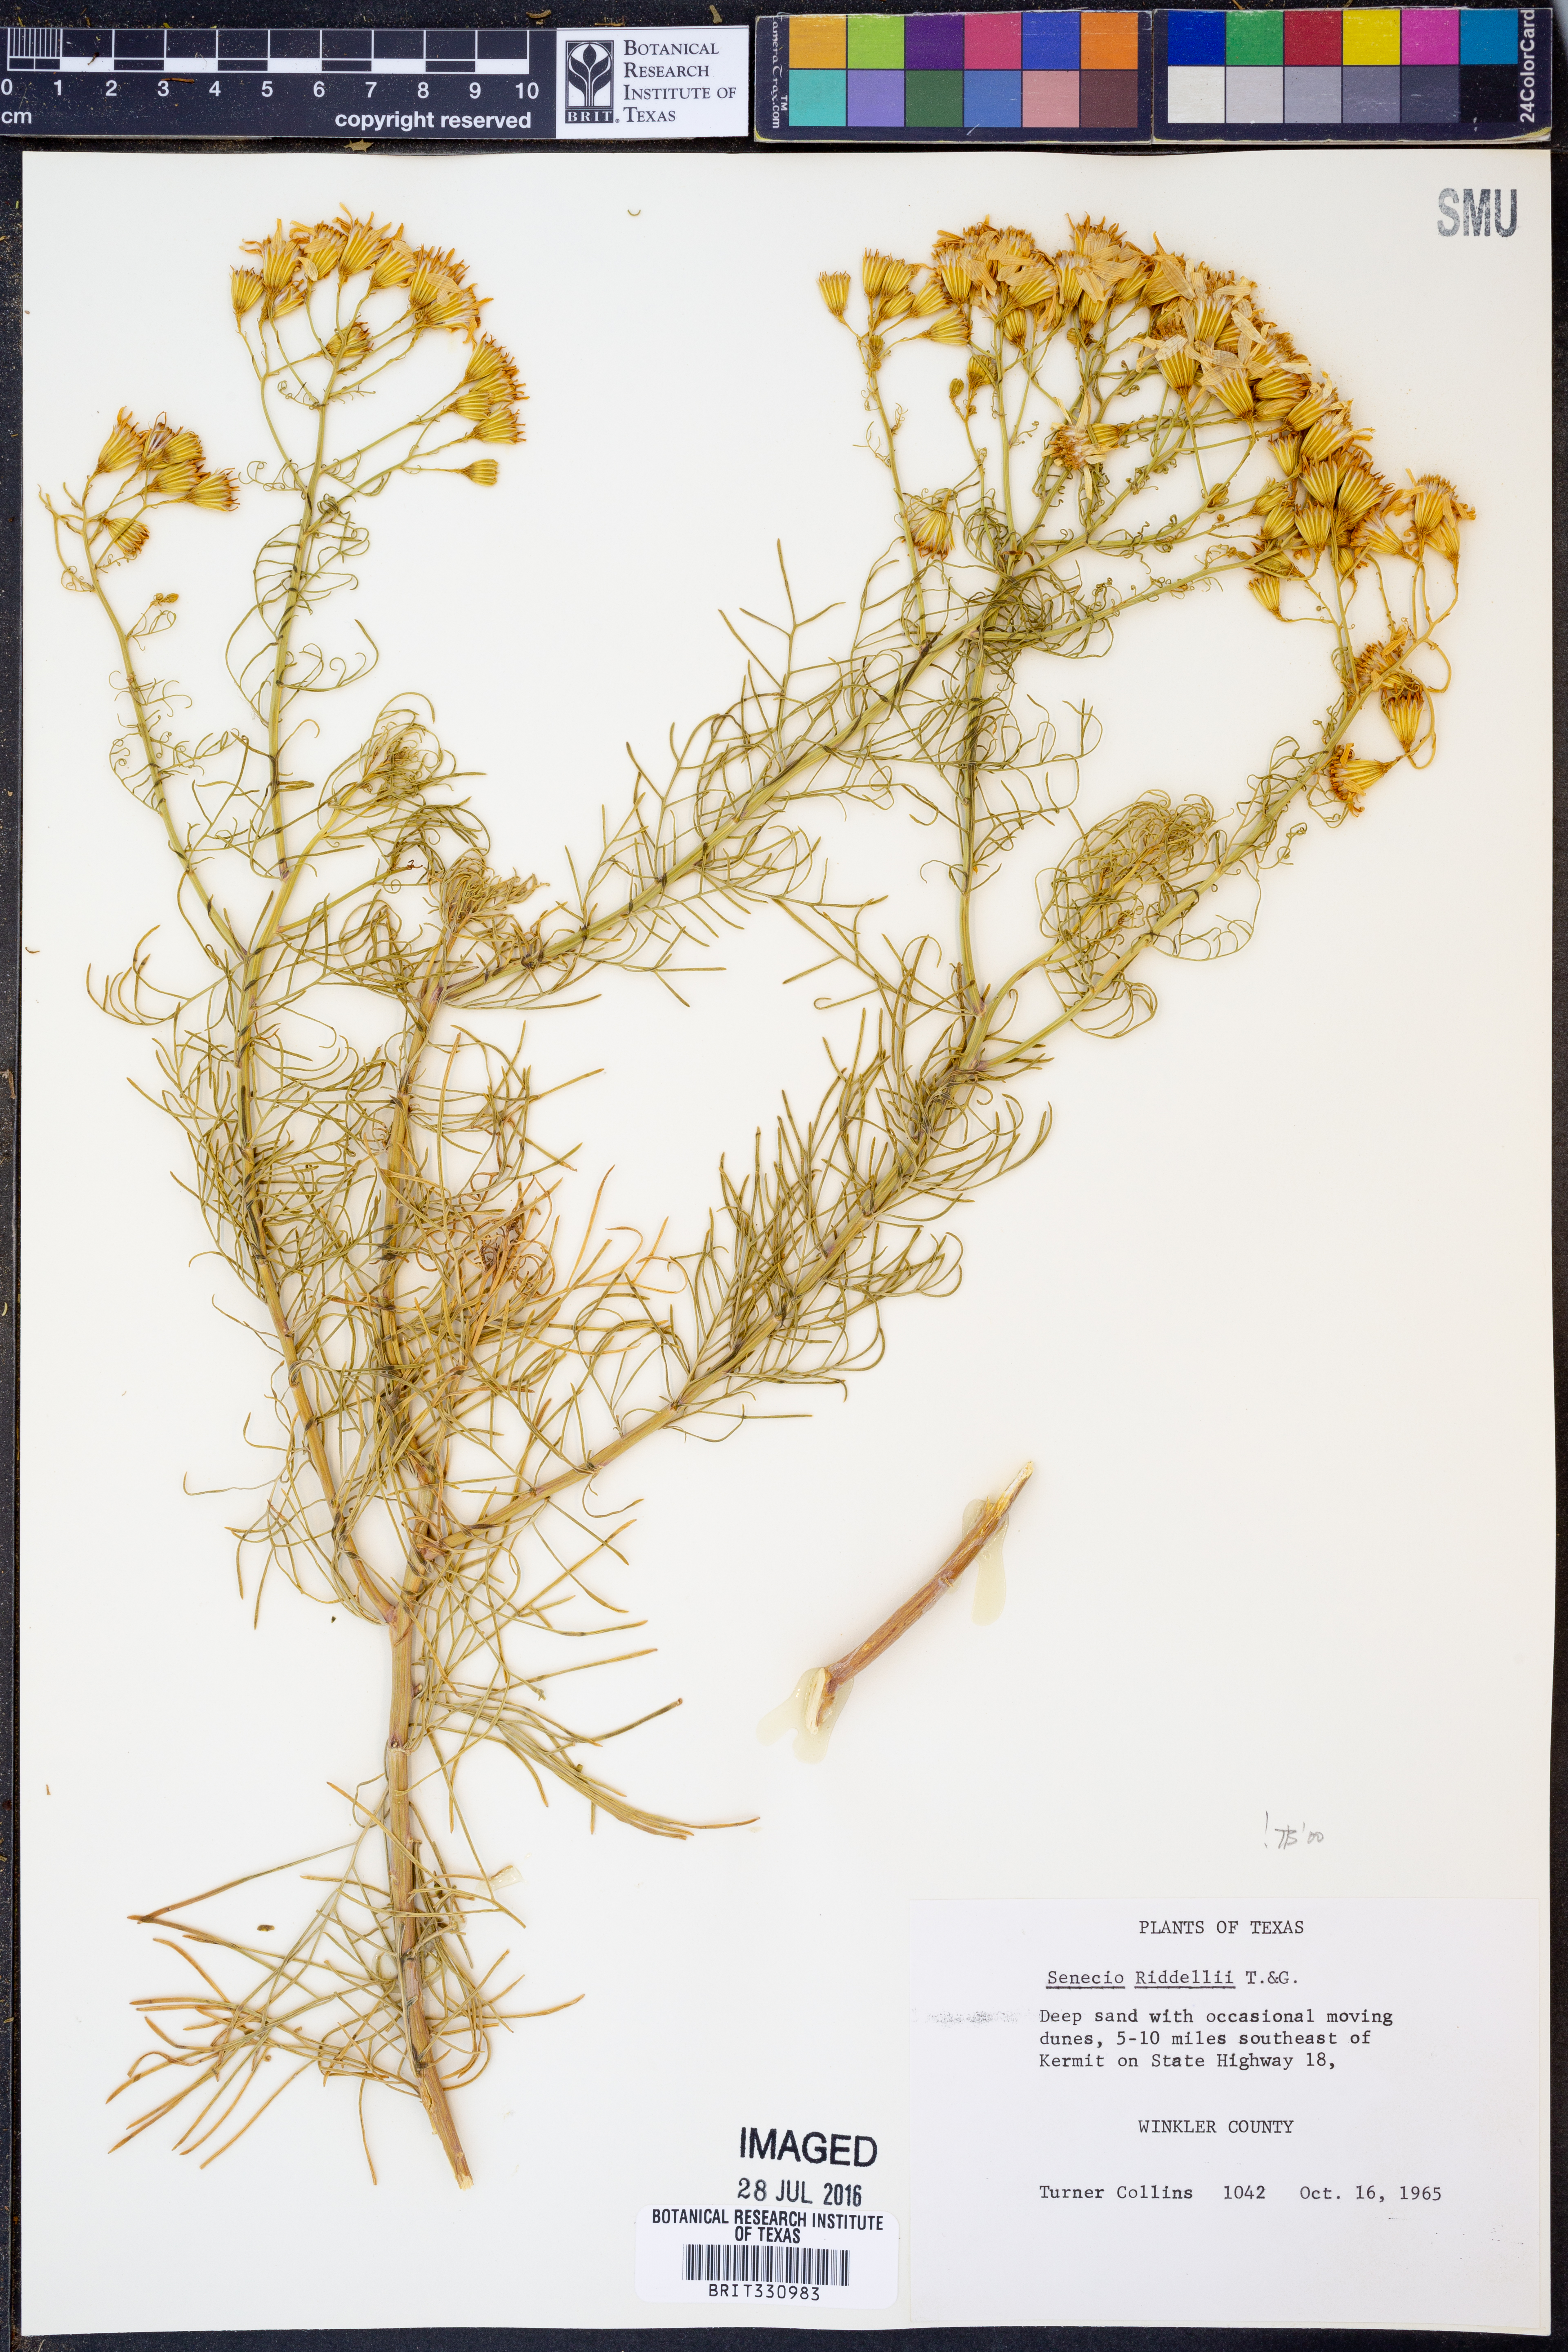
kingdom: Plantae
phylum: Tracheophyta
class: Magnoliopsida
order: Asterales
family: Asteraceae
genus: Senecio
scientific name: Senecio riddellii
